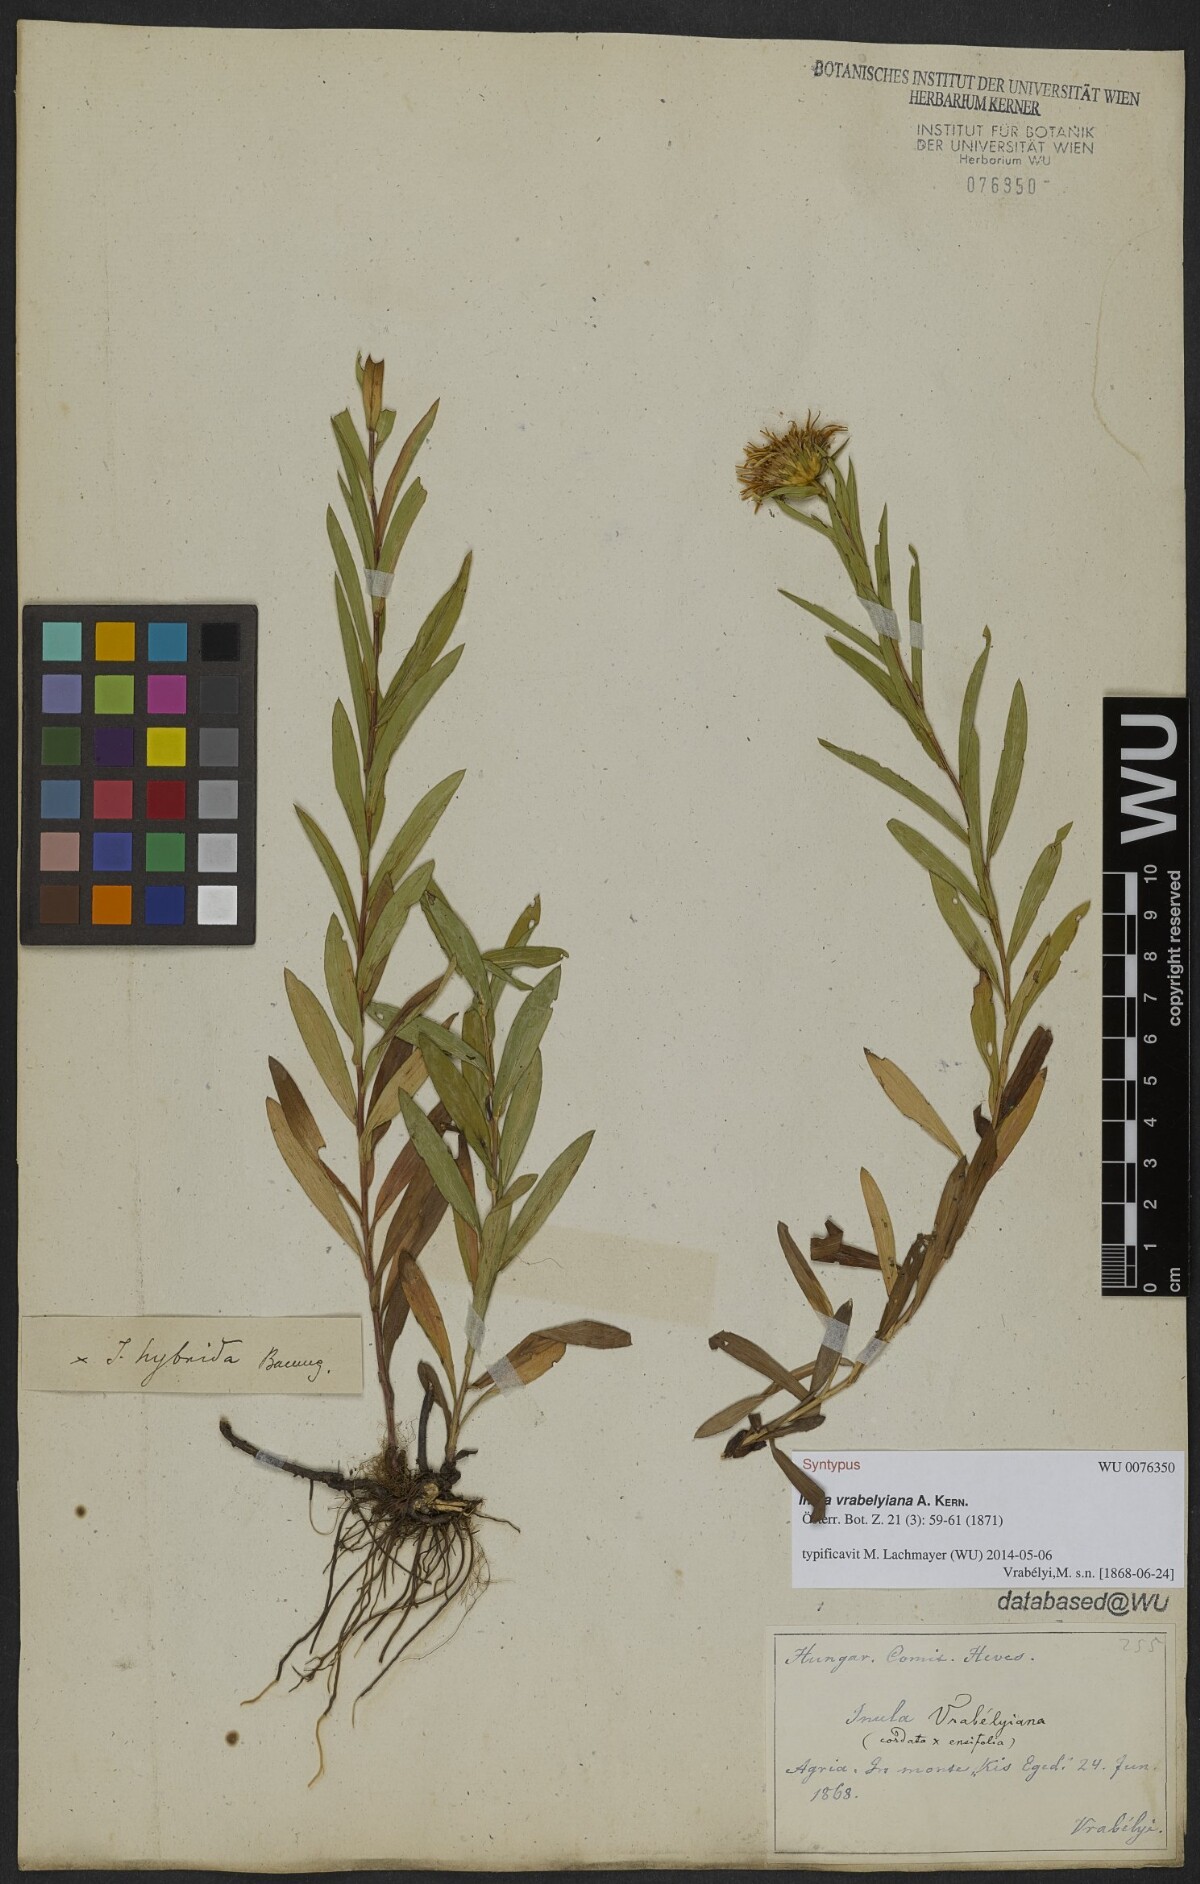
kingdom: Plantae
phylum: Tracheophyta
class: Magnoliopsida
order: Asterales
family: Asteraceae
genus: Pentanema
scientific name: Pentanema strictum
